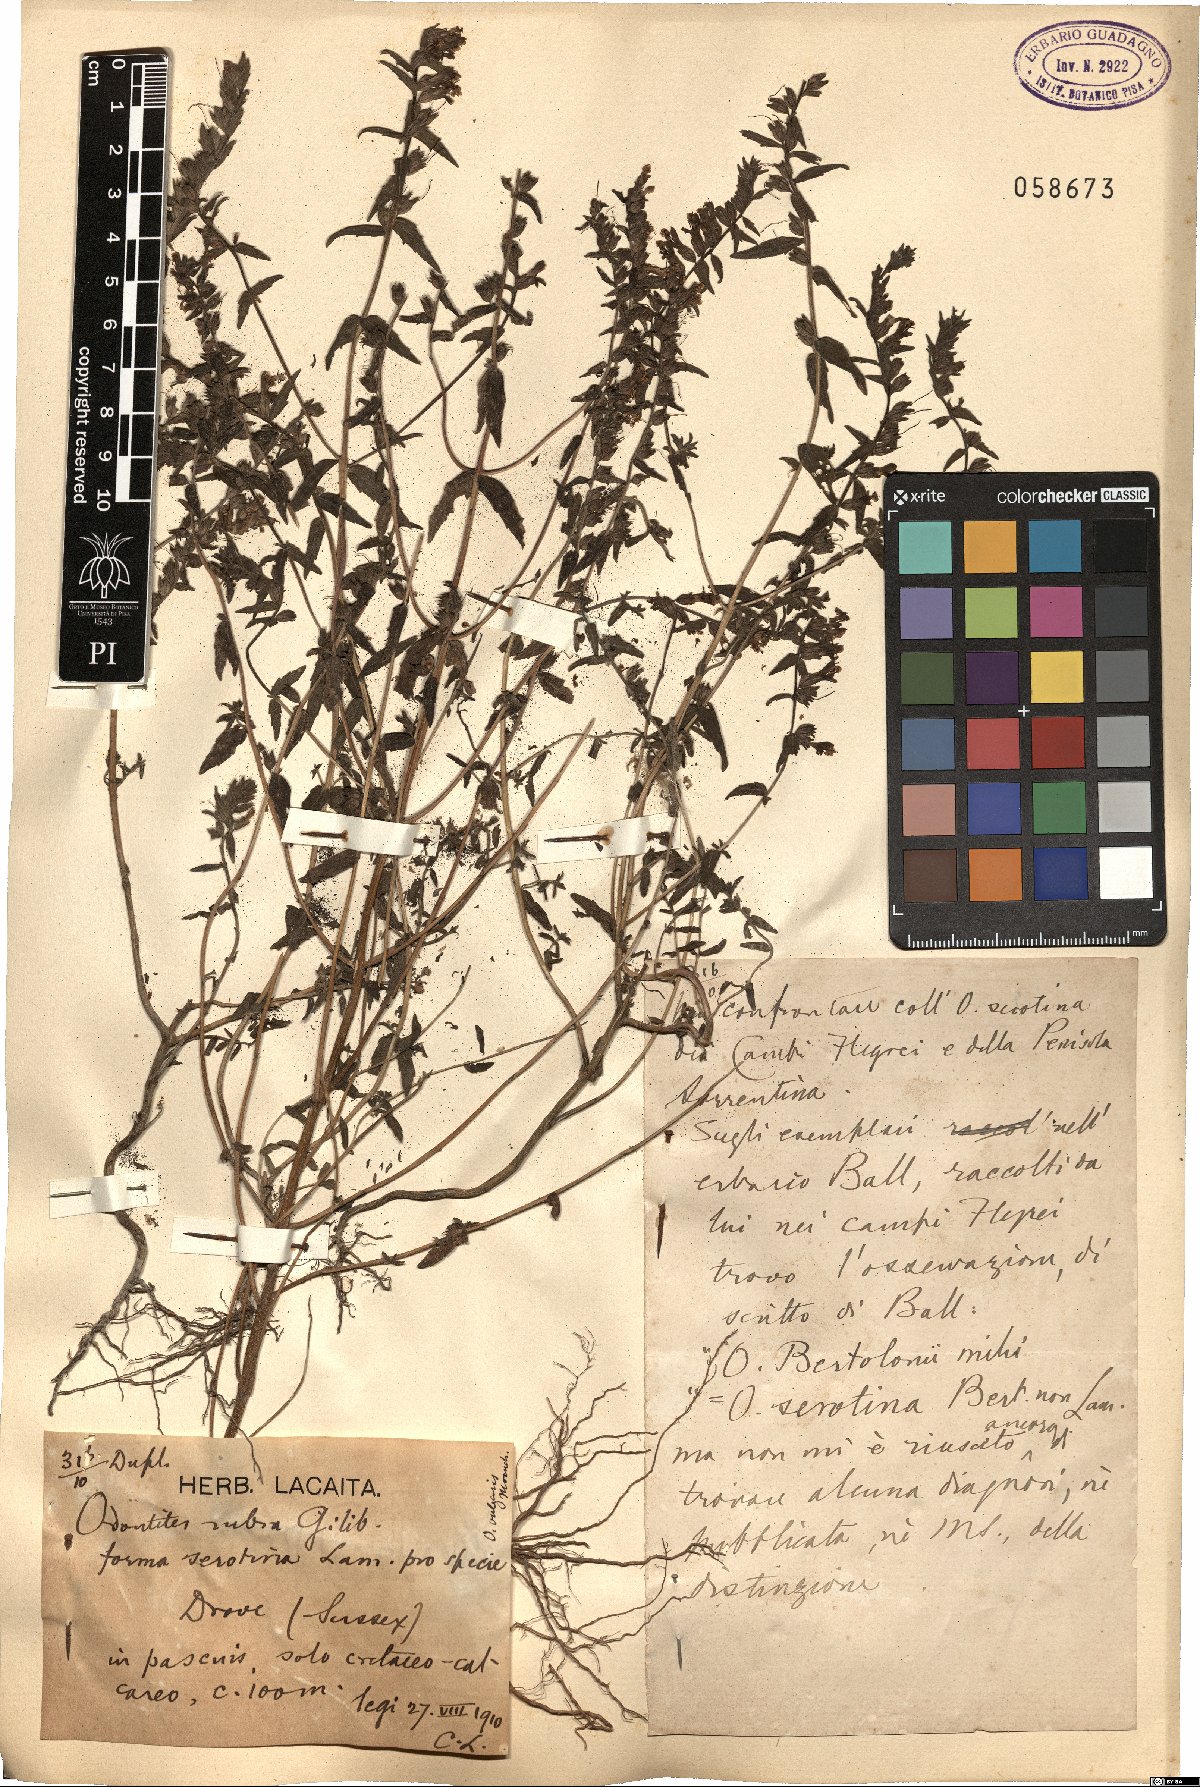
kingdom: Plantae
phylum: Tracheophyta
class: Magnoliopsida
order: Lamiales
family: Orobanchaceae
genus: Odontites
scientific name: Odontites vulgaris
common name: Broomrape
